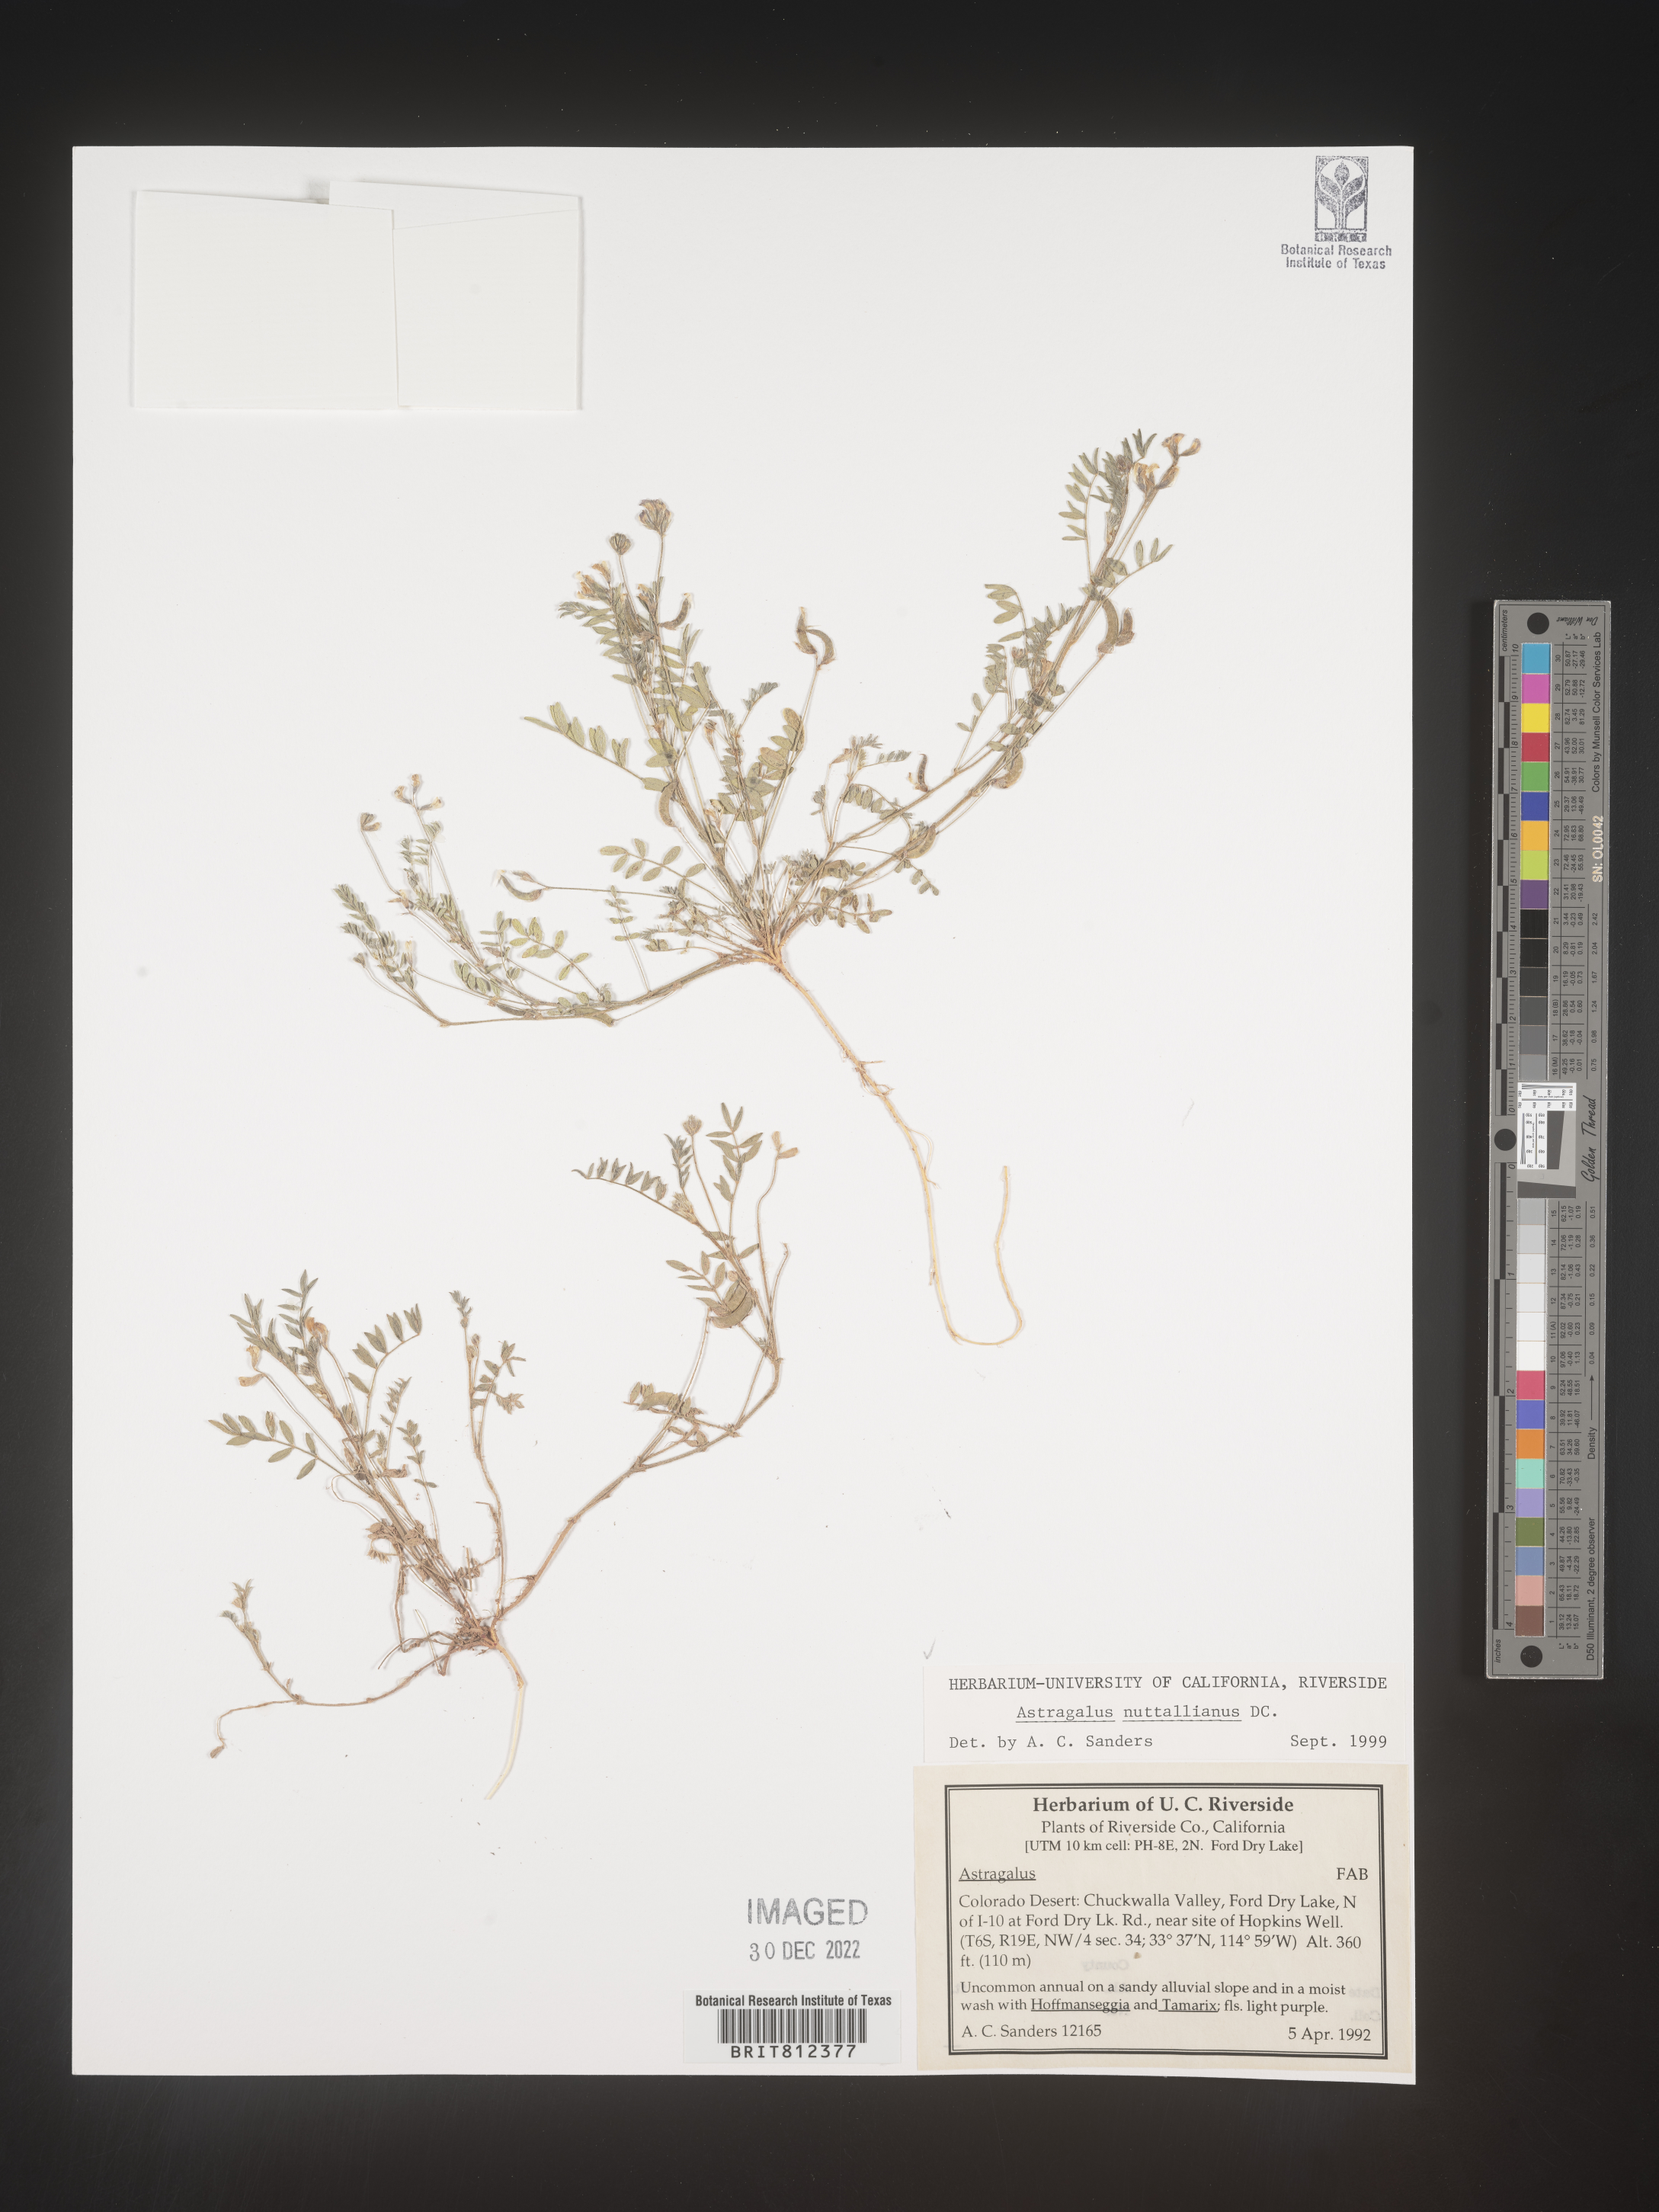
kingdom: Plantae
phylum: Tracheophyta
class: Magnoliopsida
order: Fabales
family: Fabaceae
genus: Astragalus
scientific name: Astragalus nuttallianus
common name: Smallflowered milkvetch
